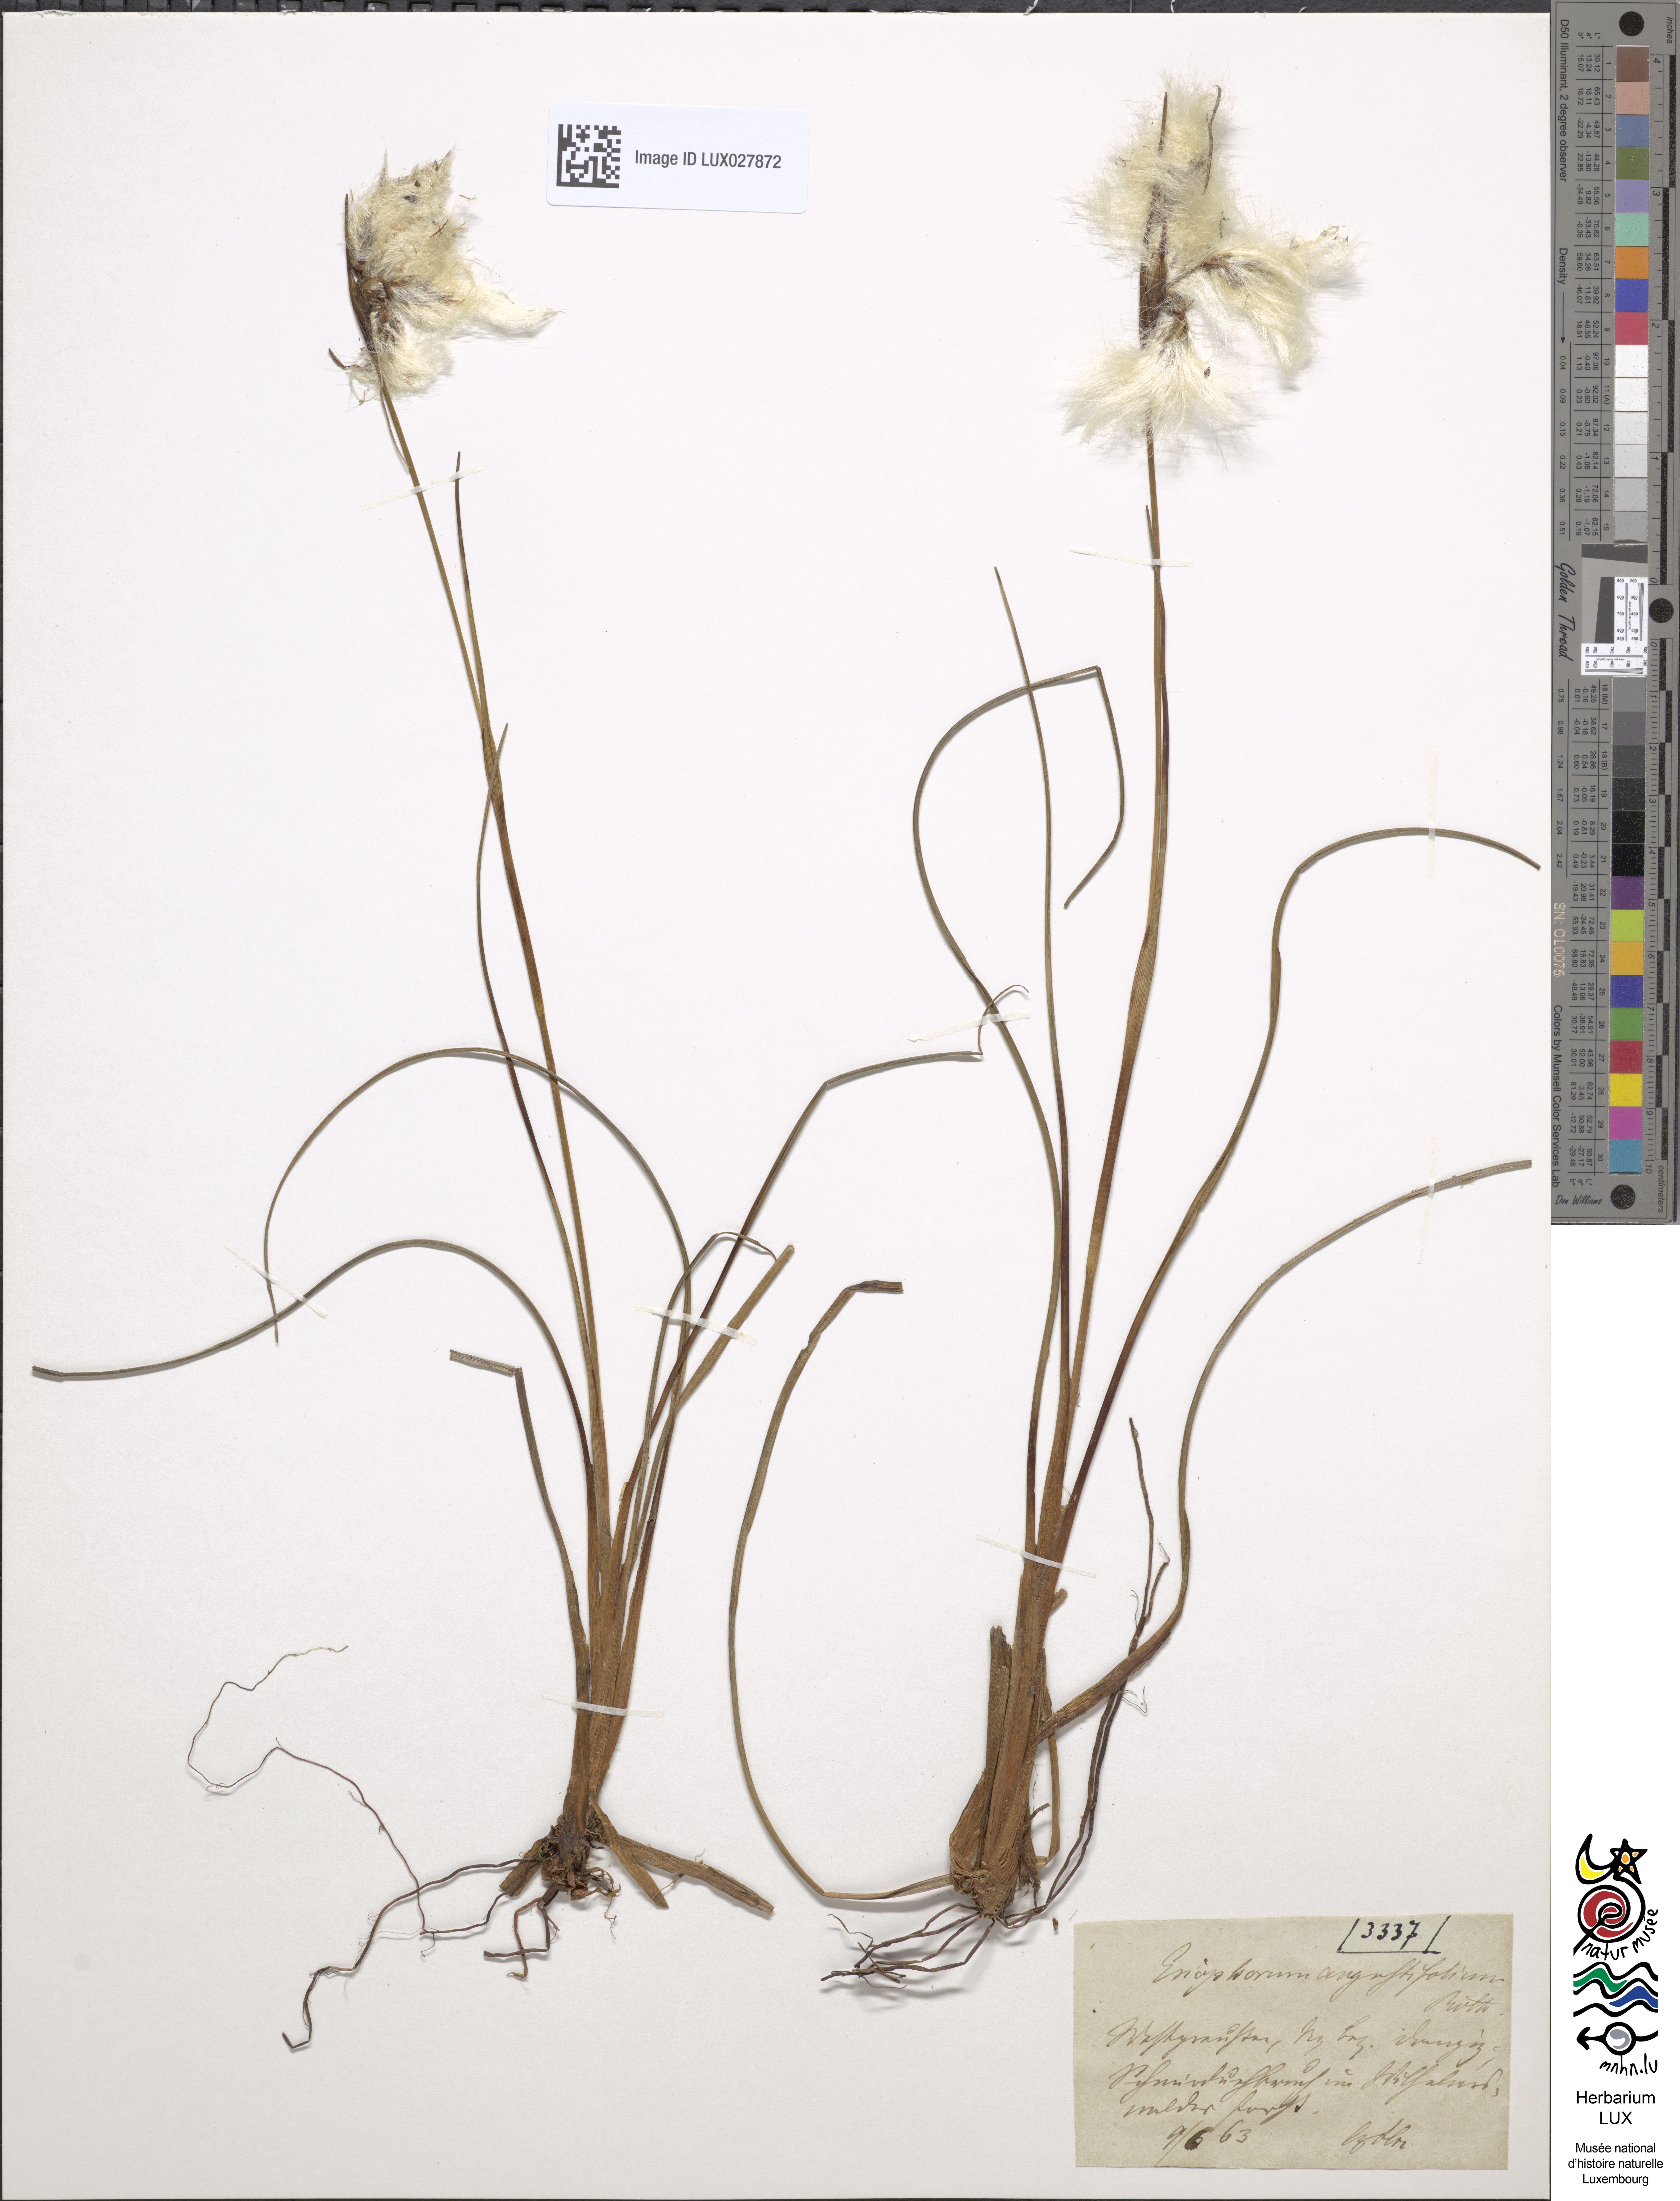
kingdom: Plantae
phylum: Tracheophyta
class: Liliopsida
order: Poales
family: Cyperaceae
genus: Eriophorum
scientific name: Eriophorum angustifolium
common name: Common cottongrass
